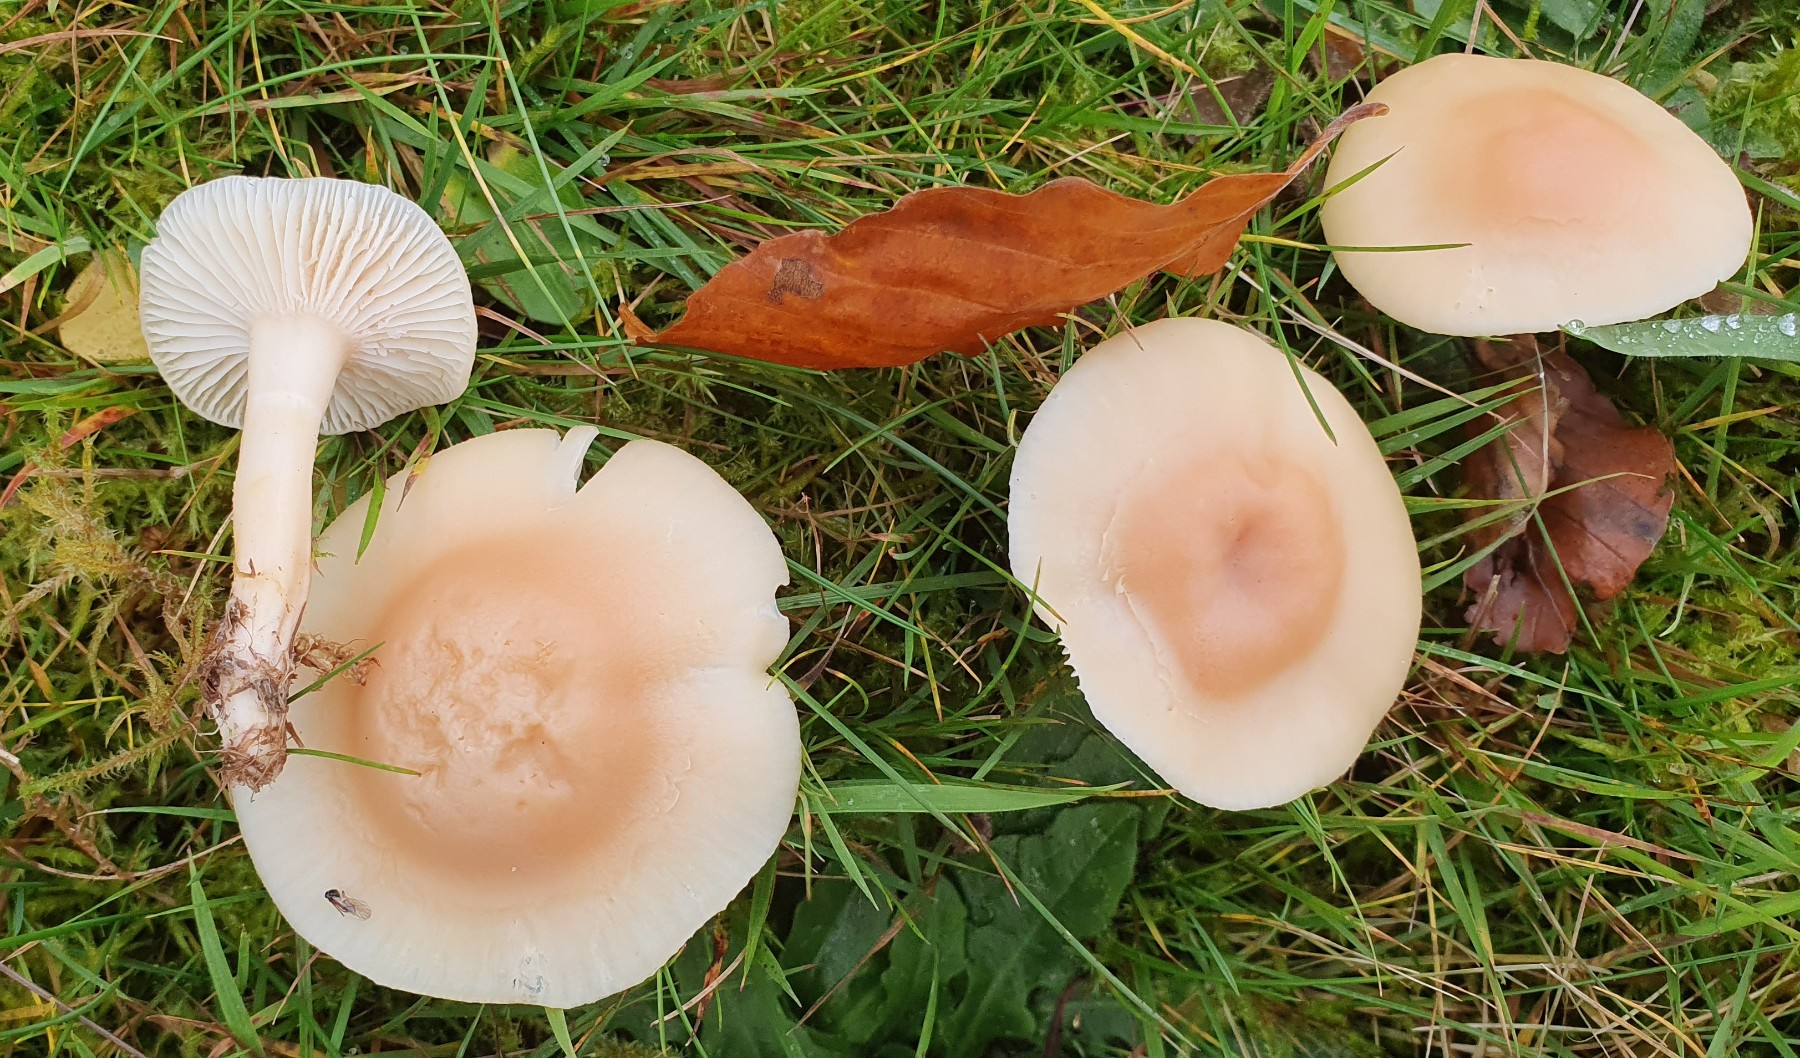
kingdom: Fungi
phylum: Basidiomycota
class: Agaricomycetes
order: Agaricales
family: Hygrophoraceae
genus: Cuphophyllus
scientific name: Cuphophyllus pratensis
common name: eng-vokshat
